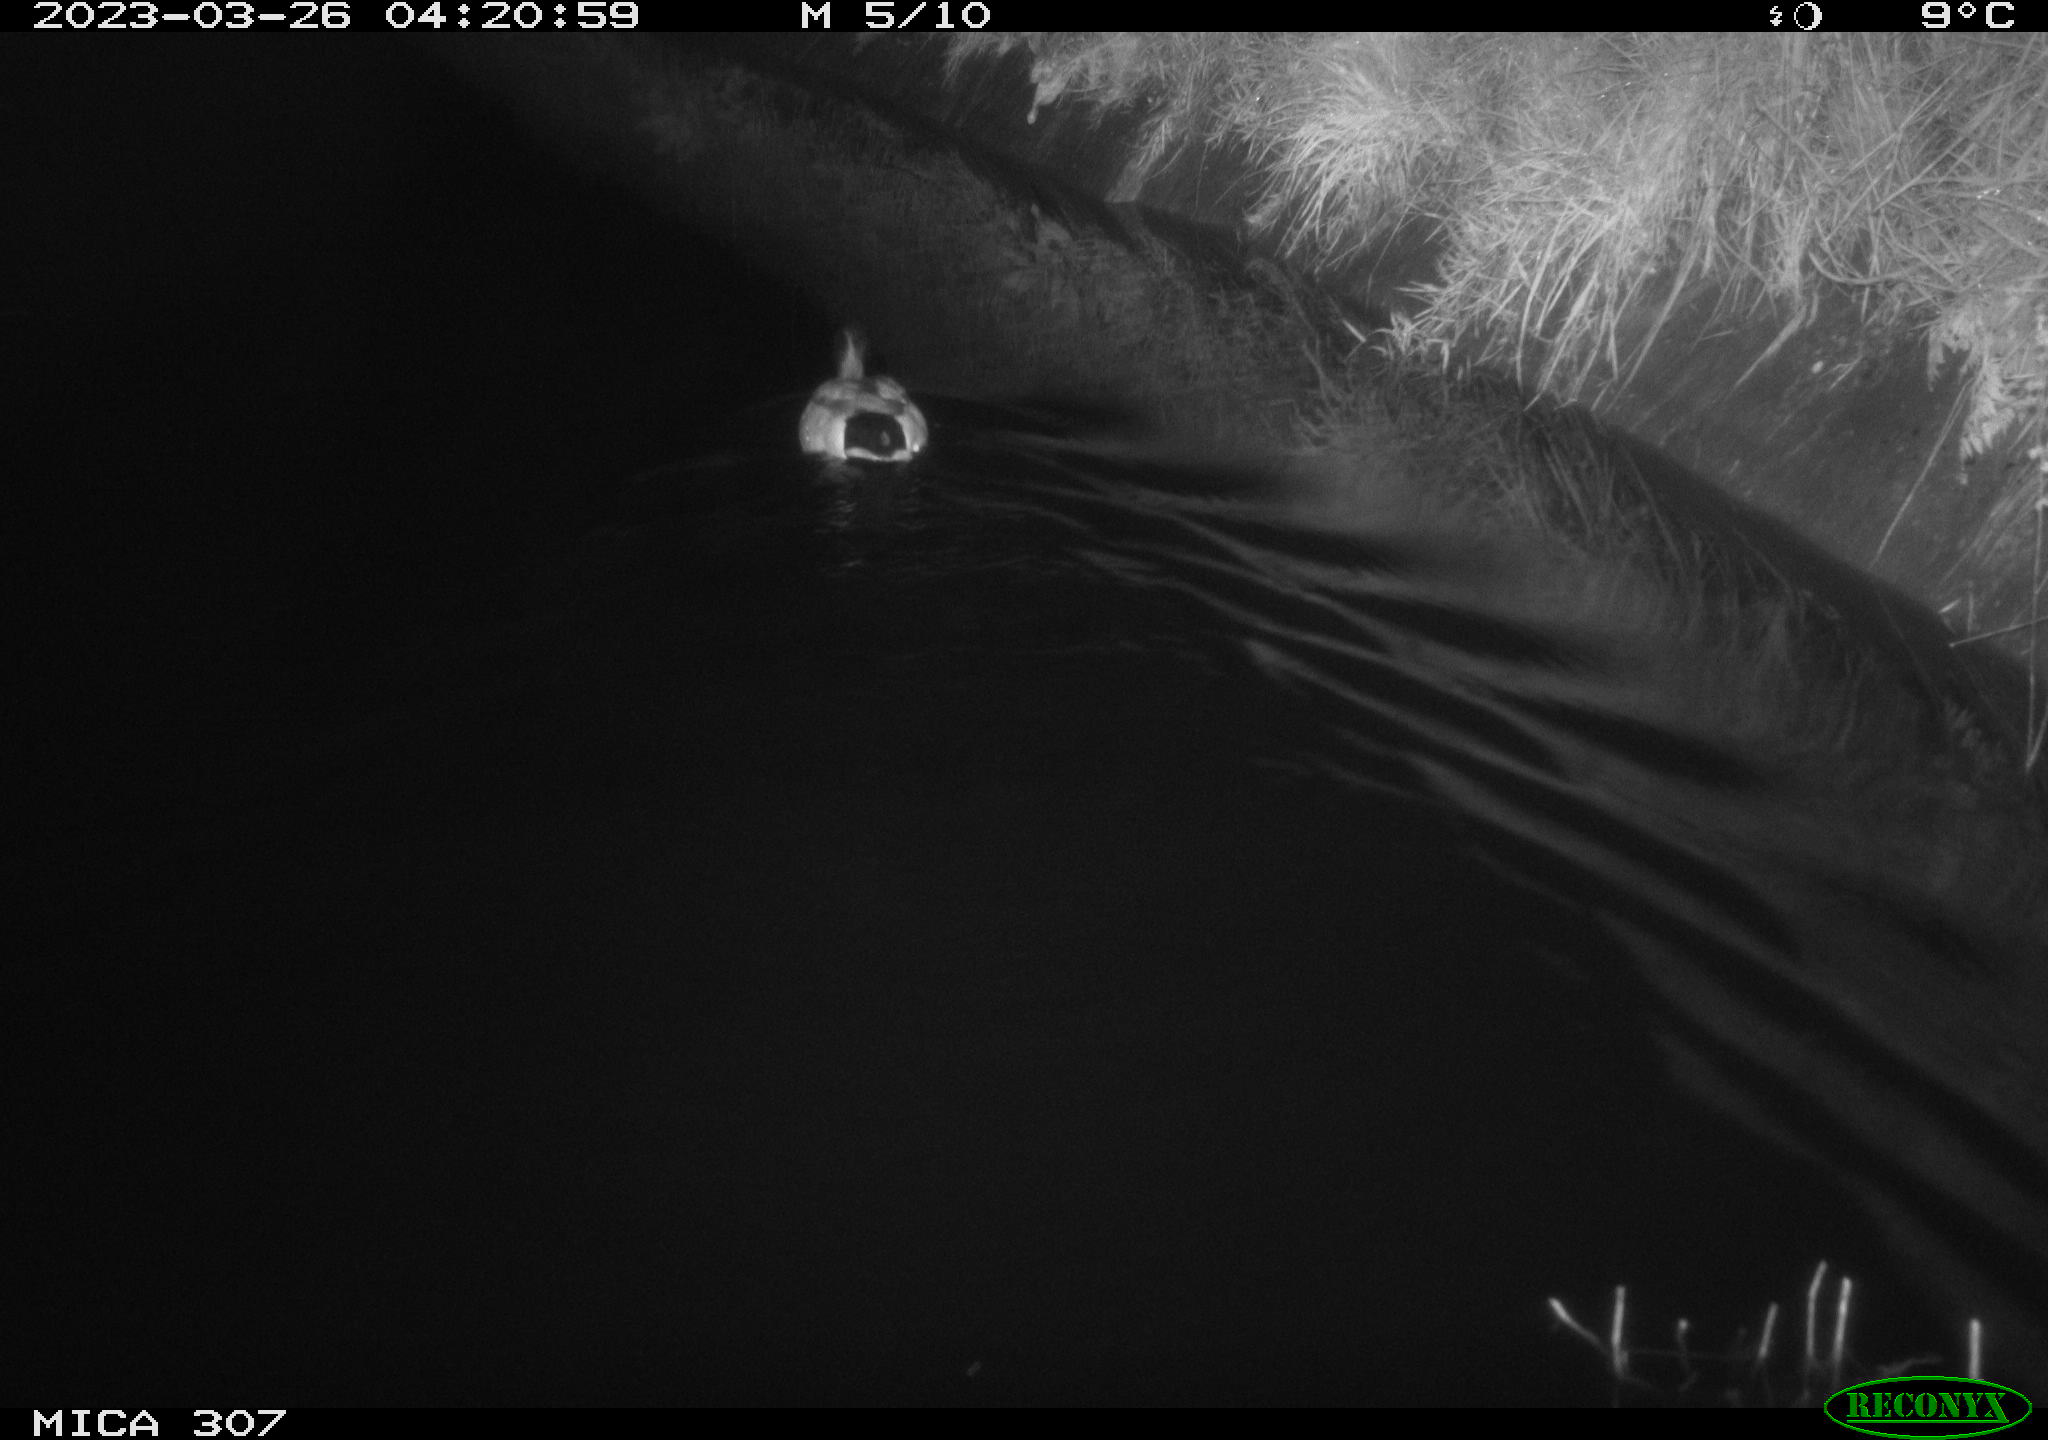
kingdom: Animalia
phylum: Chordata
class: Aves
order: Anseriformes
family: Anatidae
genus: Anas
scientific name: Anas
